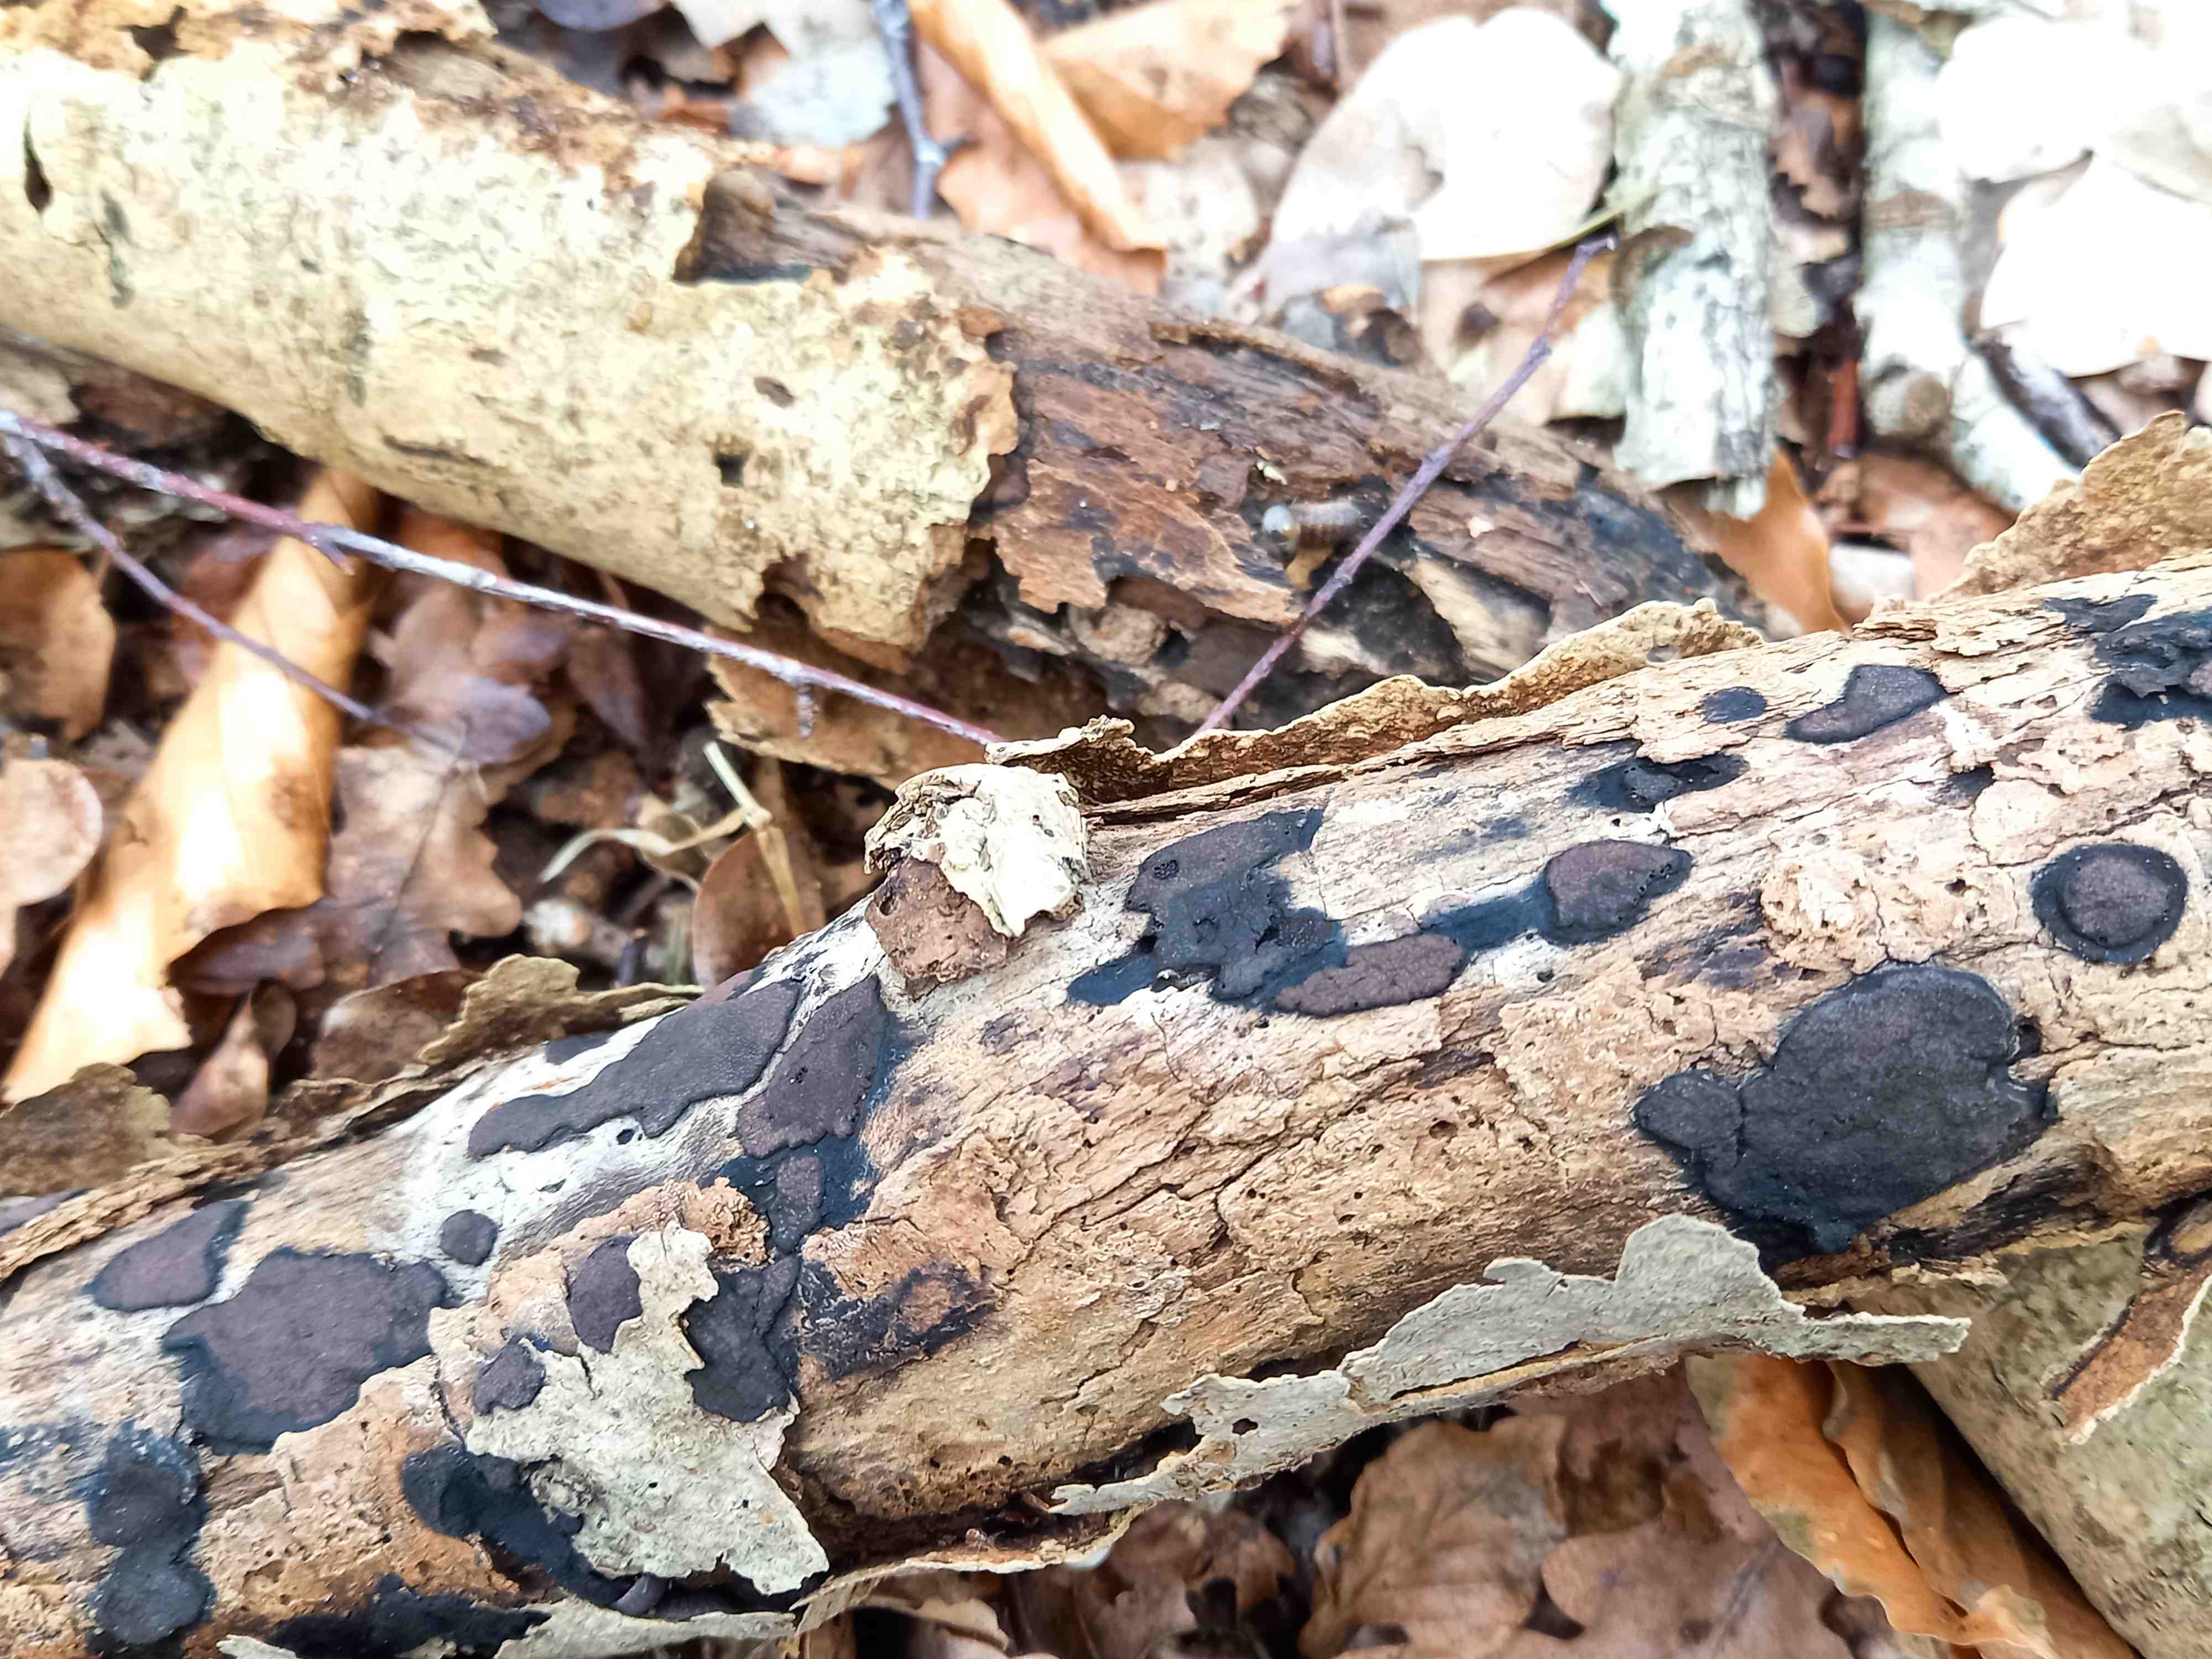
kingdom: Fungi
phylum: Ascomycota
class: Sordariomycetes
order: Xylariales
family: Hypoxylaceae
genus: Hypoxylon
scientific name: Hypoxylon petriniae
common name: nedsænket kulbær
